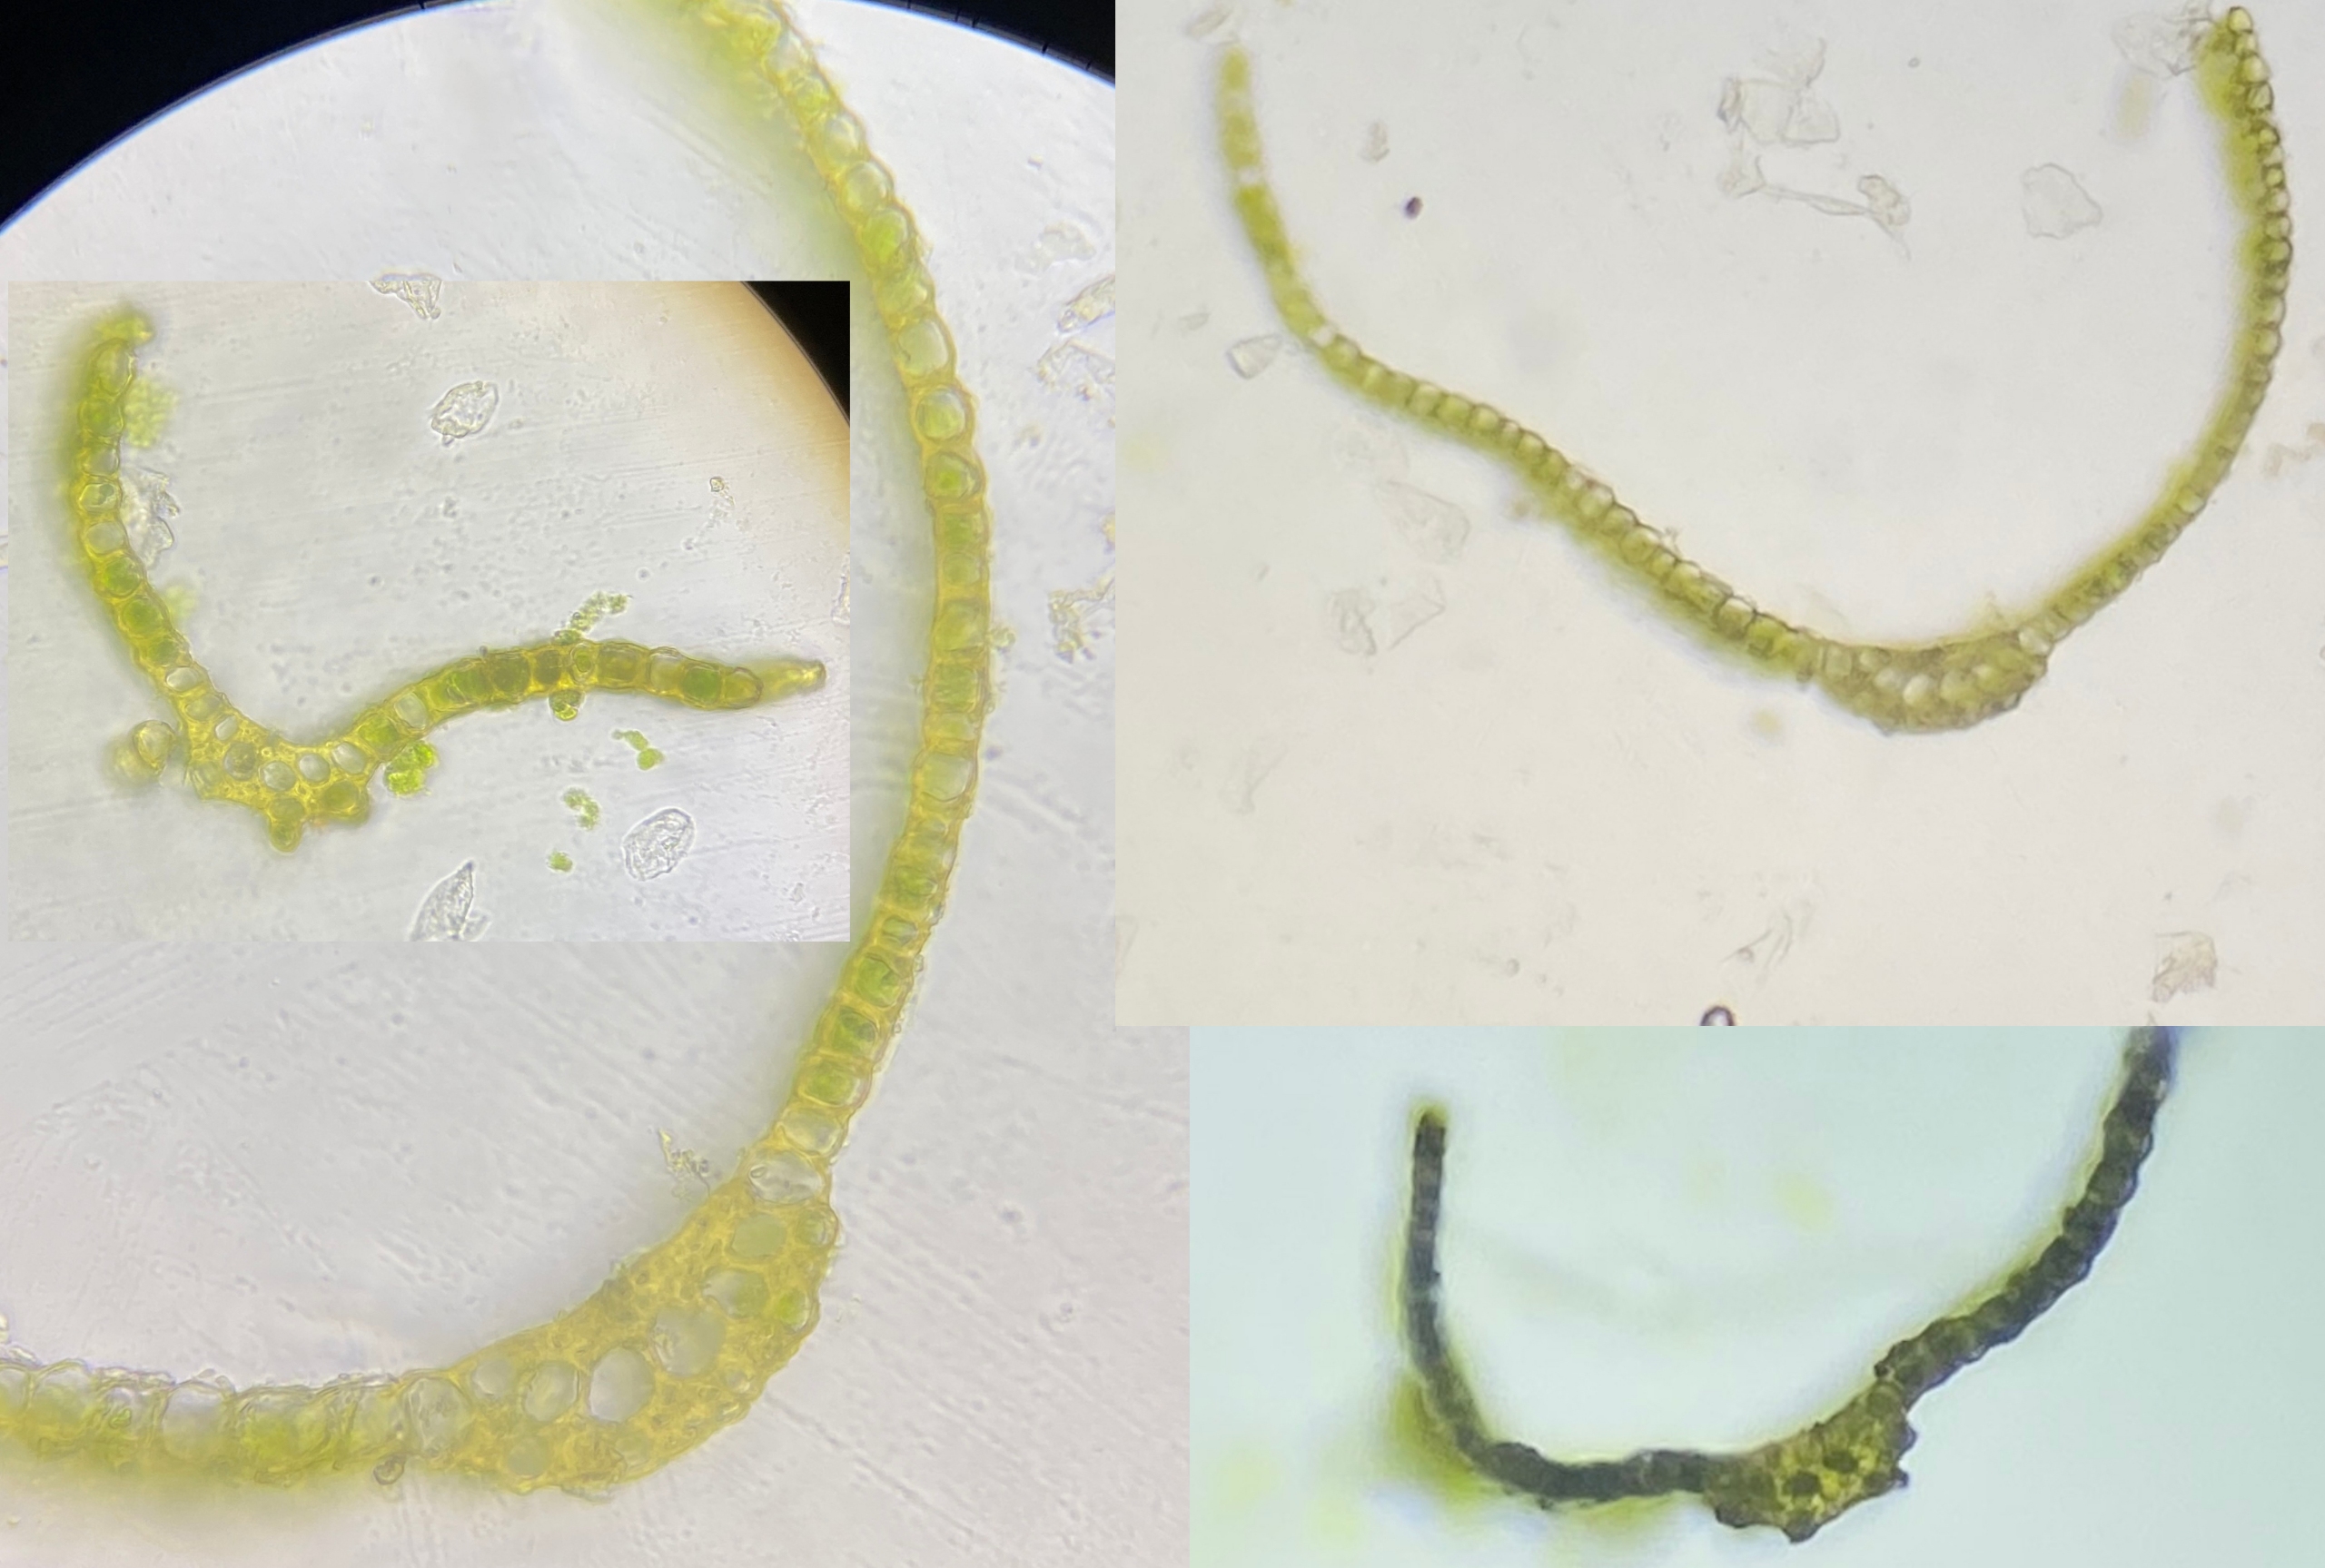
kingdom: Plantae
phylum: Bryophyta
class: Bryopsida
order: Dicranales
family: Dicranaceae
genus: Dicranum
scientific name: Dicranum scoparium
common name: Almindelig kløvtand
